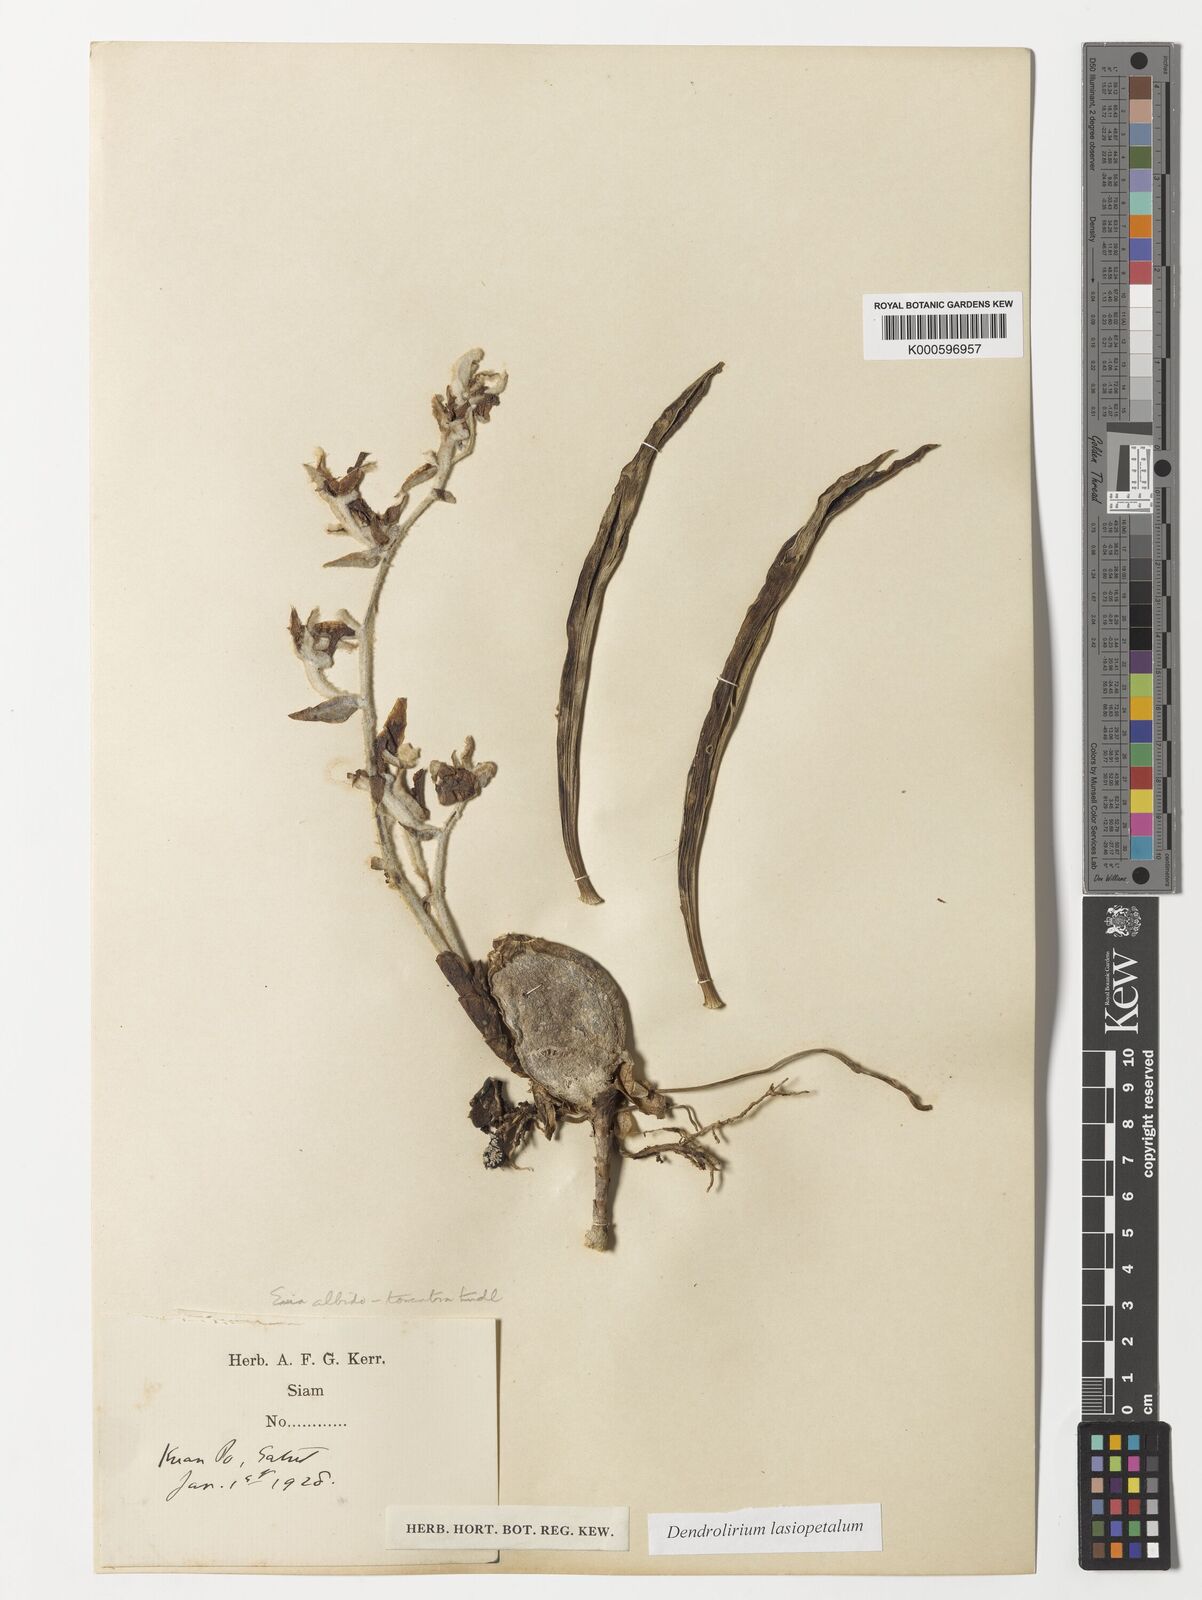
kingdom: Plantae
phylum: Tracheophyta
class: Liliopsida
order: Asparagales
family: Orchidaceae
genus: Dendrolirium
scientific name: Dendrolirium lasiopetalum
